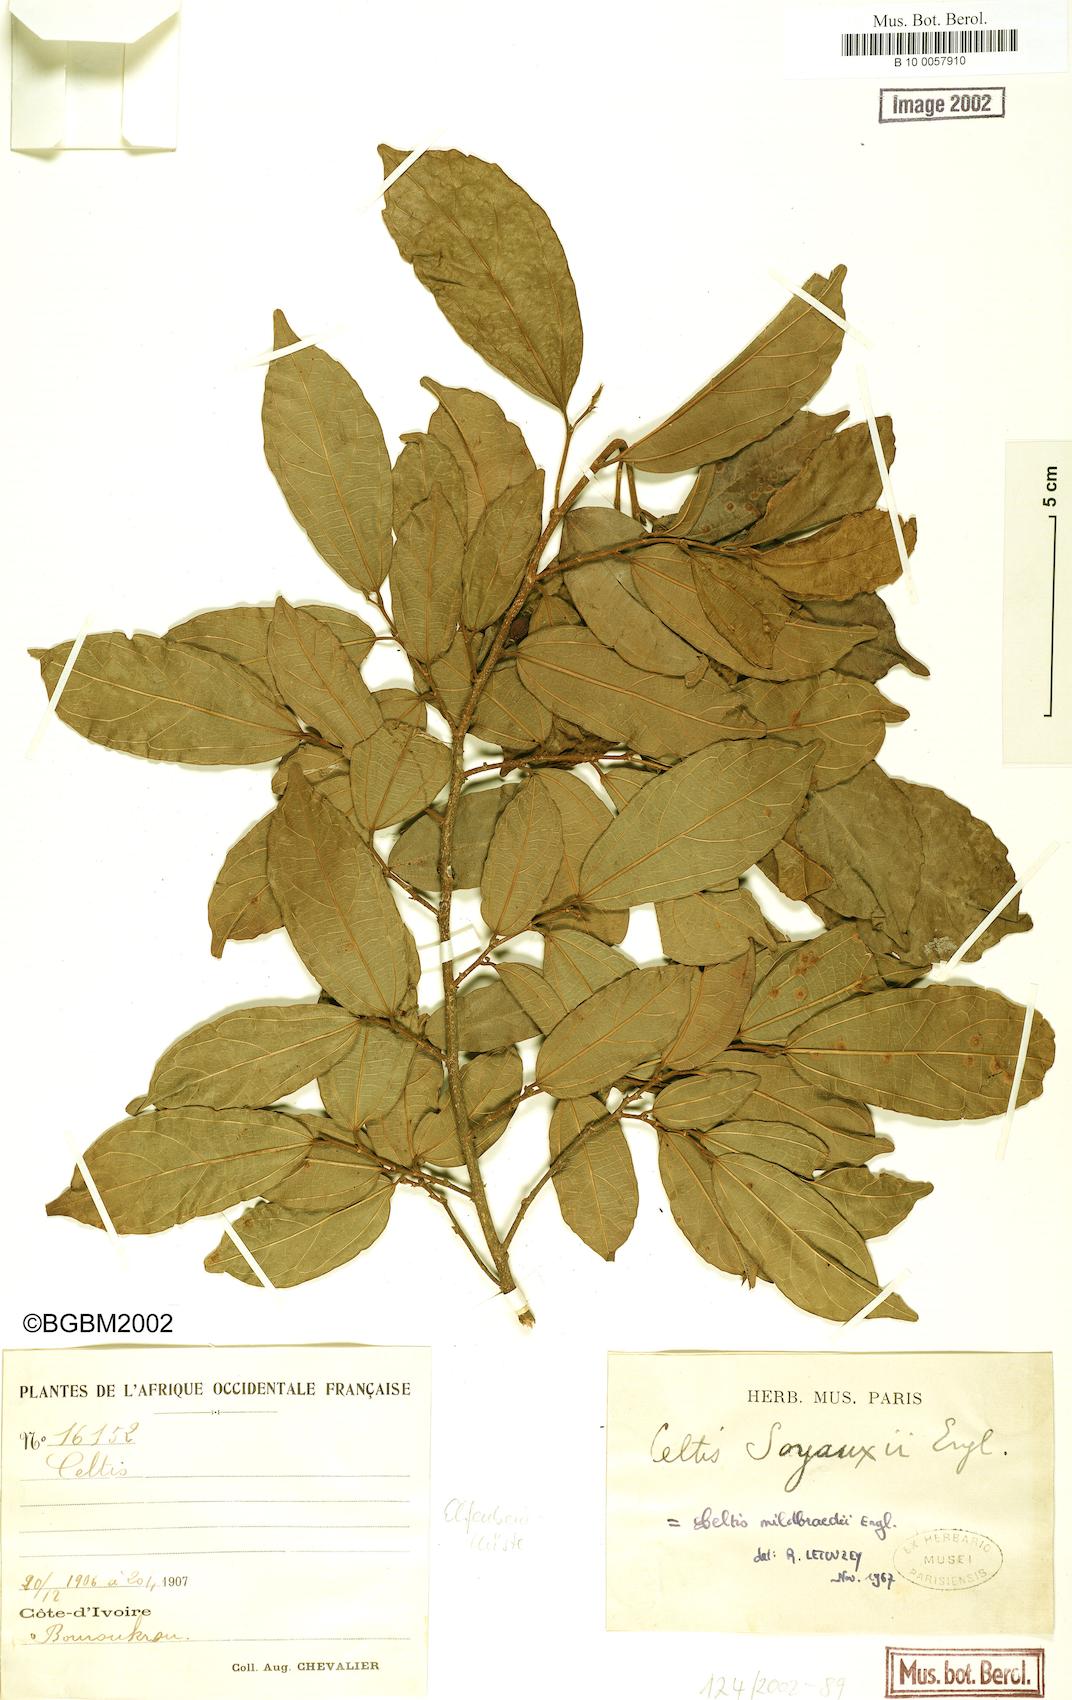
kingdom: Plantae
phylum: Tracheophyta
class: Magnoliopsida
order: Rosales
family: Cannabaceae
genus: Celtis
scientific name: Celtis zenkeri
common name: African celtis
